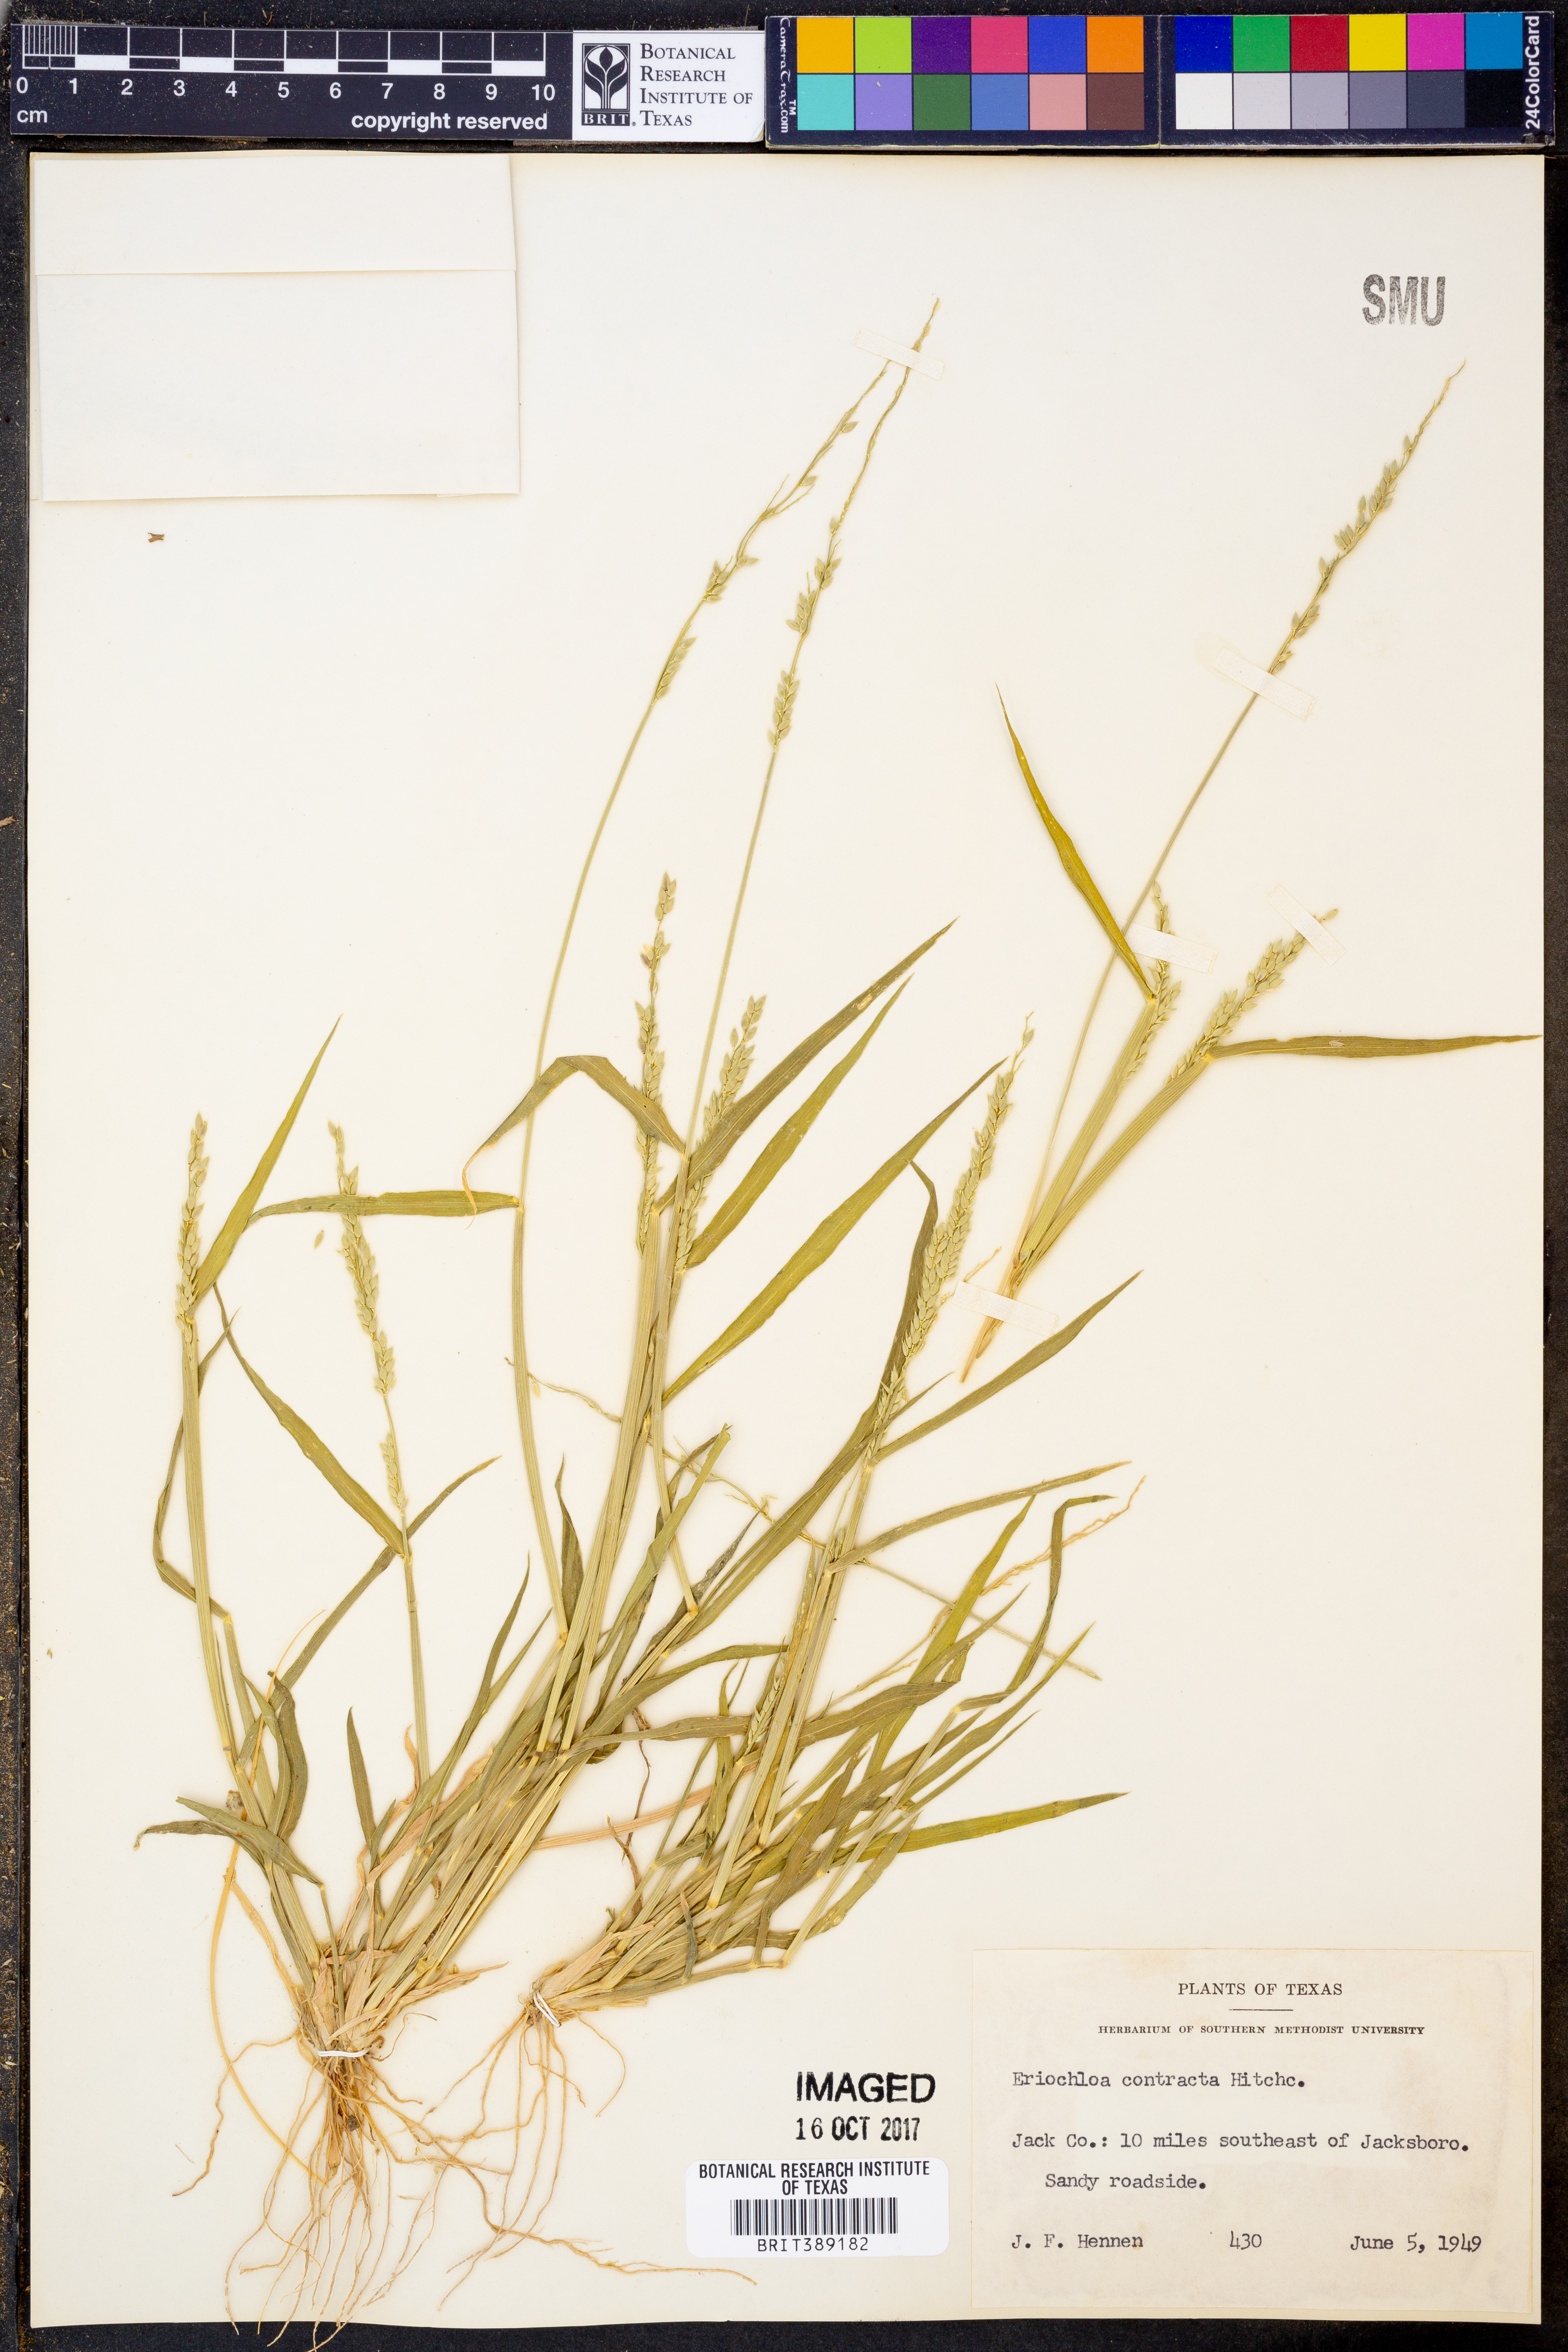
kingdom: Plantae
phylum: Tracheophyta
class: Liliopsida
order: Poales
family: Poaceae
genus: Eriochloa
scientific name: Eriochloa contracta
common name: Prairie cup grass
